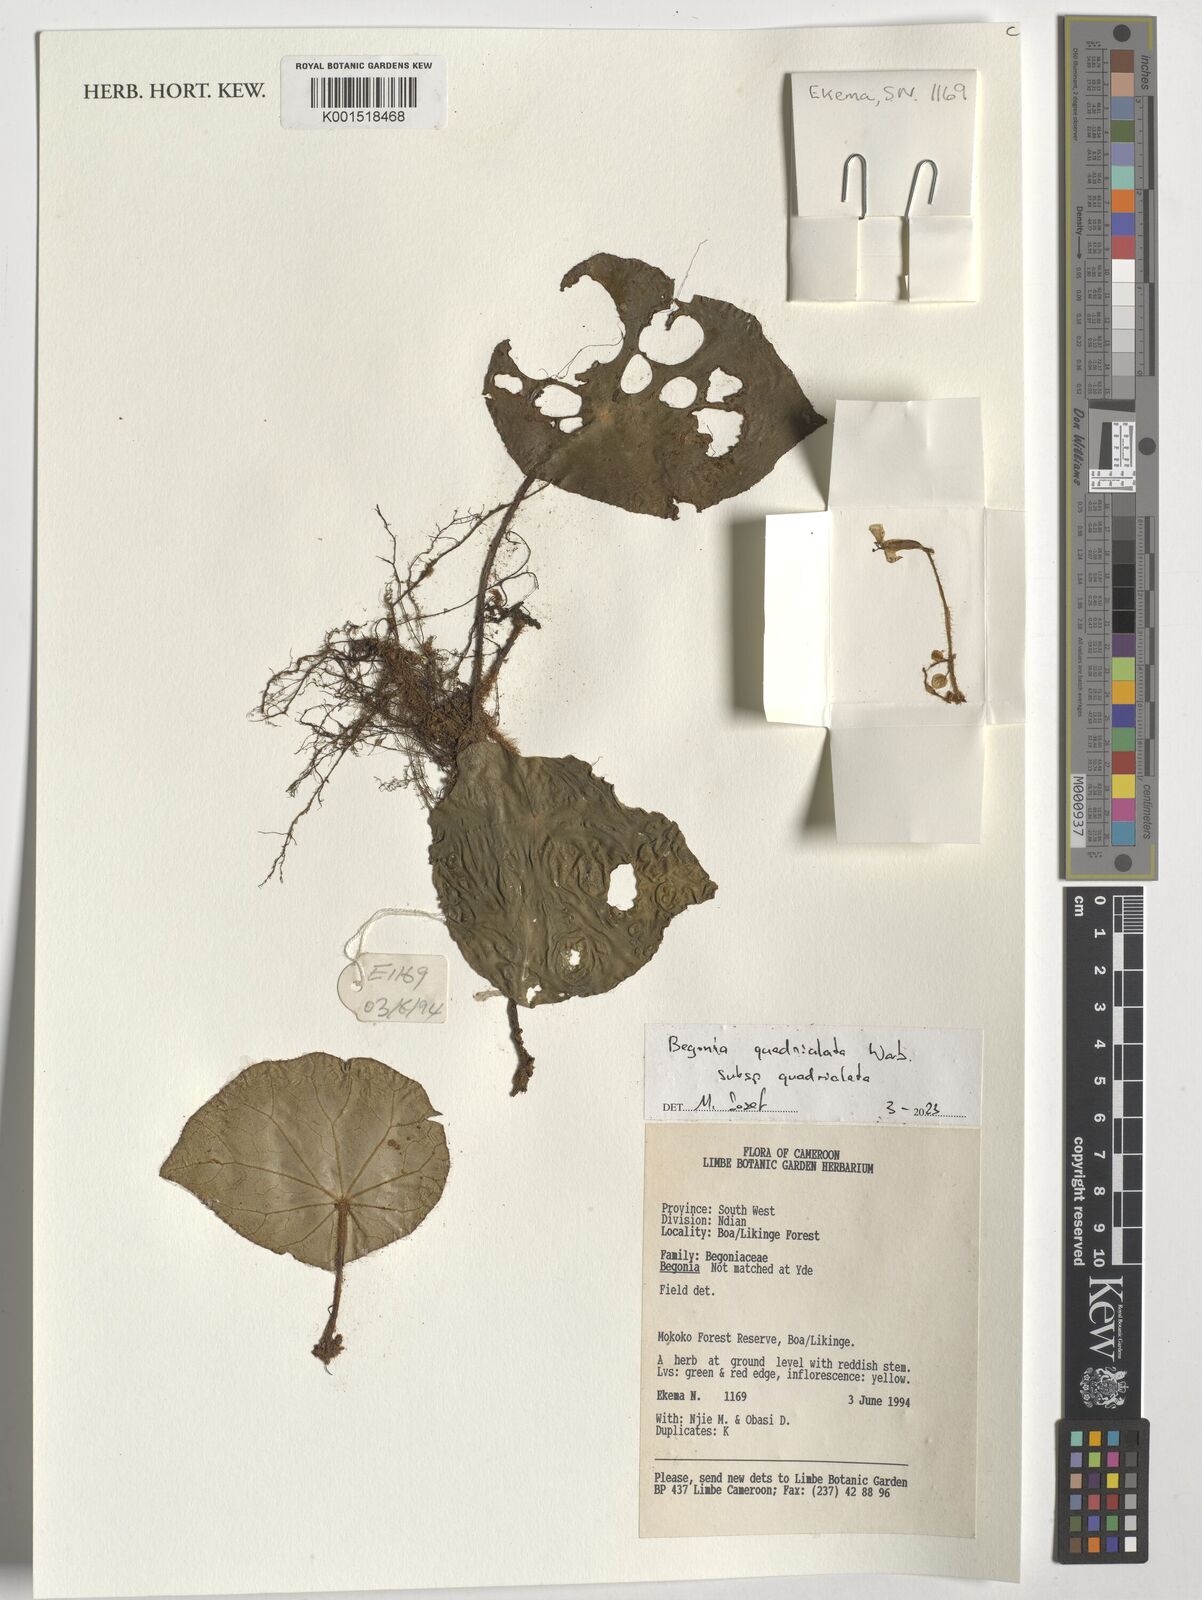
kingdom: Plantae
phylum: Tracheophyta
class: Magnoliopsida
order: Cucurbitales
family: Begoniaceae
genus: Begonia
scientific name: Begonia quadrialata
